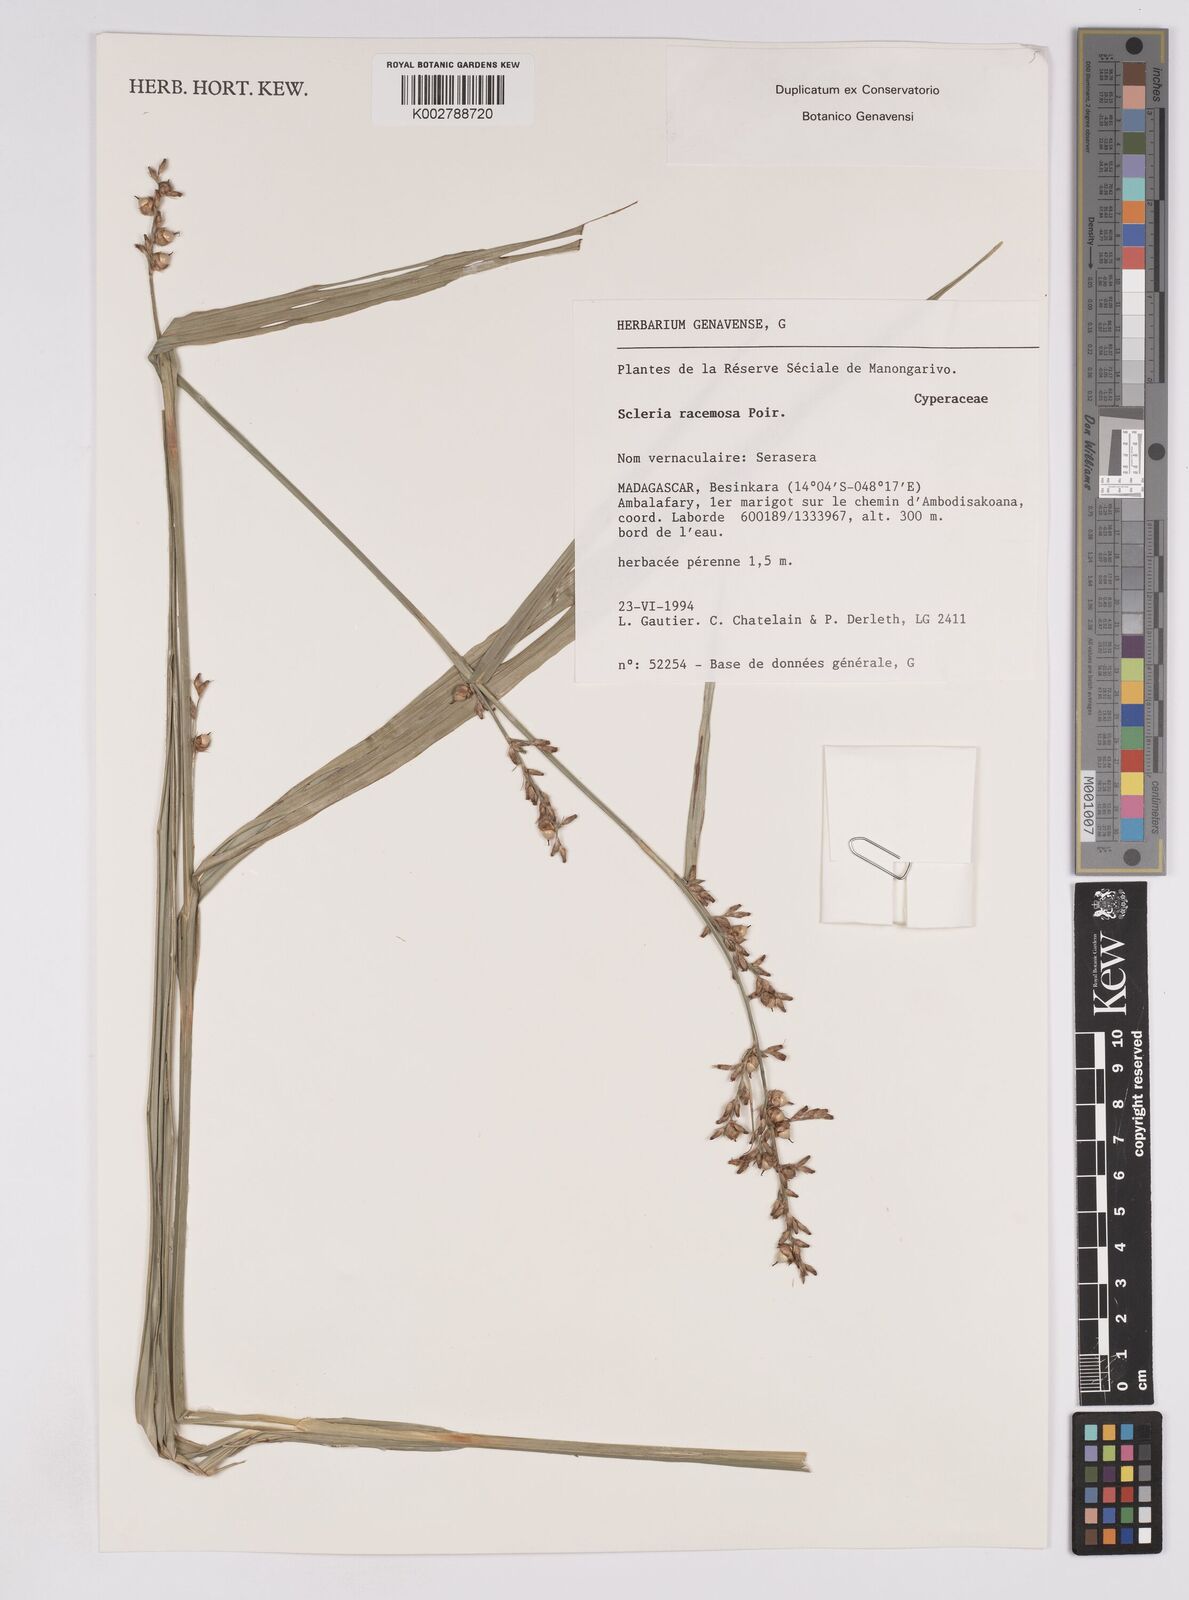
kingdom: Plantae
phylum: Tracheophyta
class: Liliopsida
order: Poales
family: Cyperaceae
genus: Scleria
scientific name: Scleria racemosa
